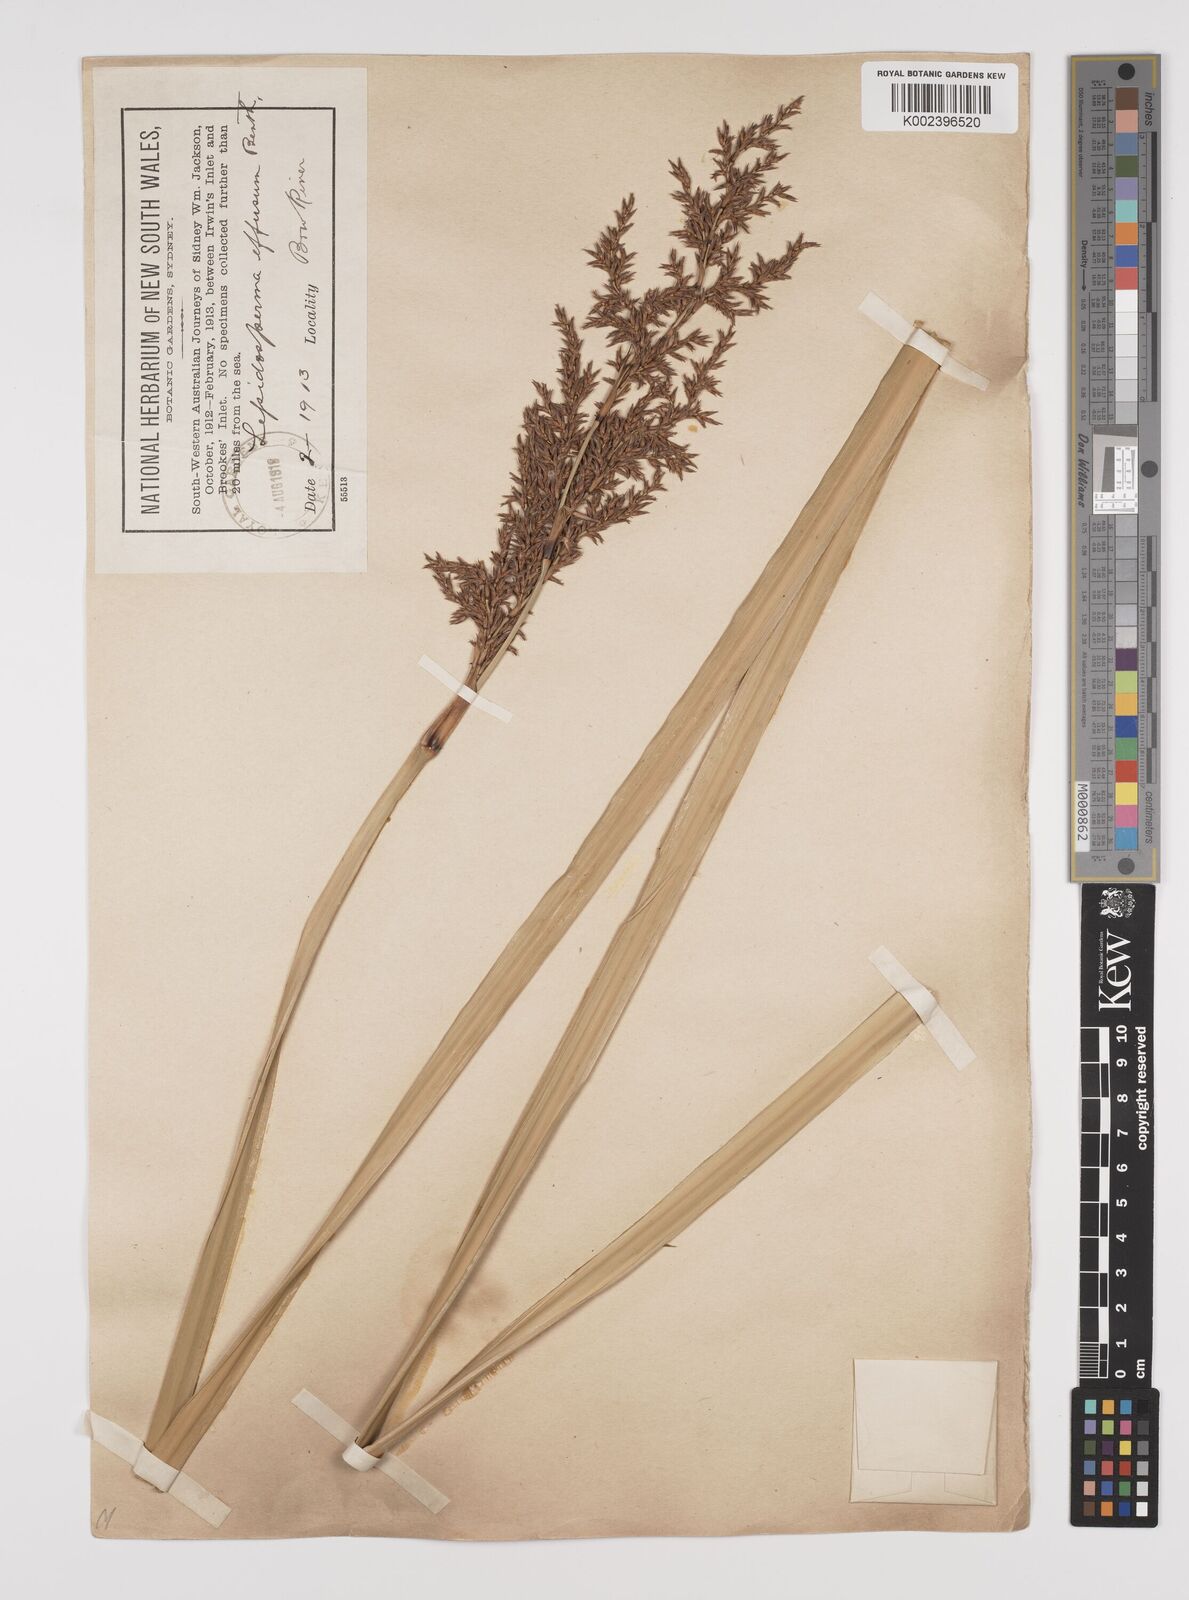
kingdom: Plantae
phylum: Tracheophyta
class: Liliopsida
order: Poales
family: Cyperaceae
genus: Lepidosperma
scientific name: Lepidosperma effusum
